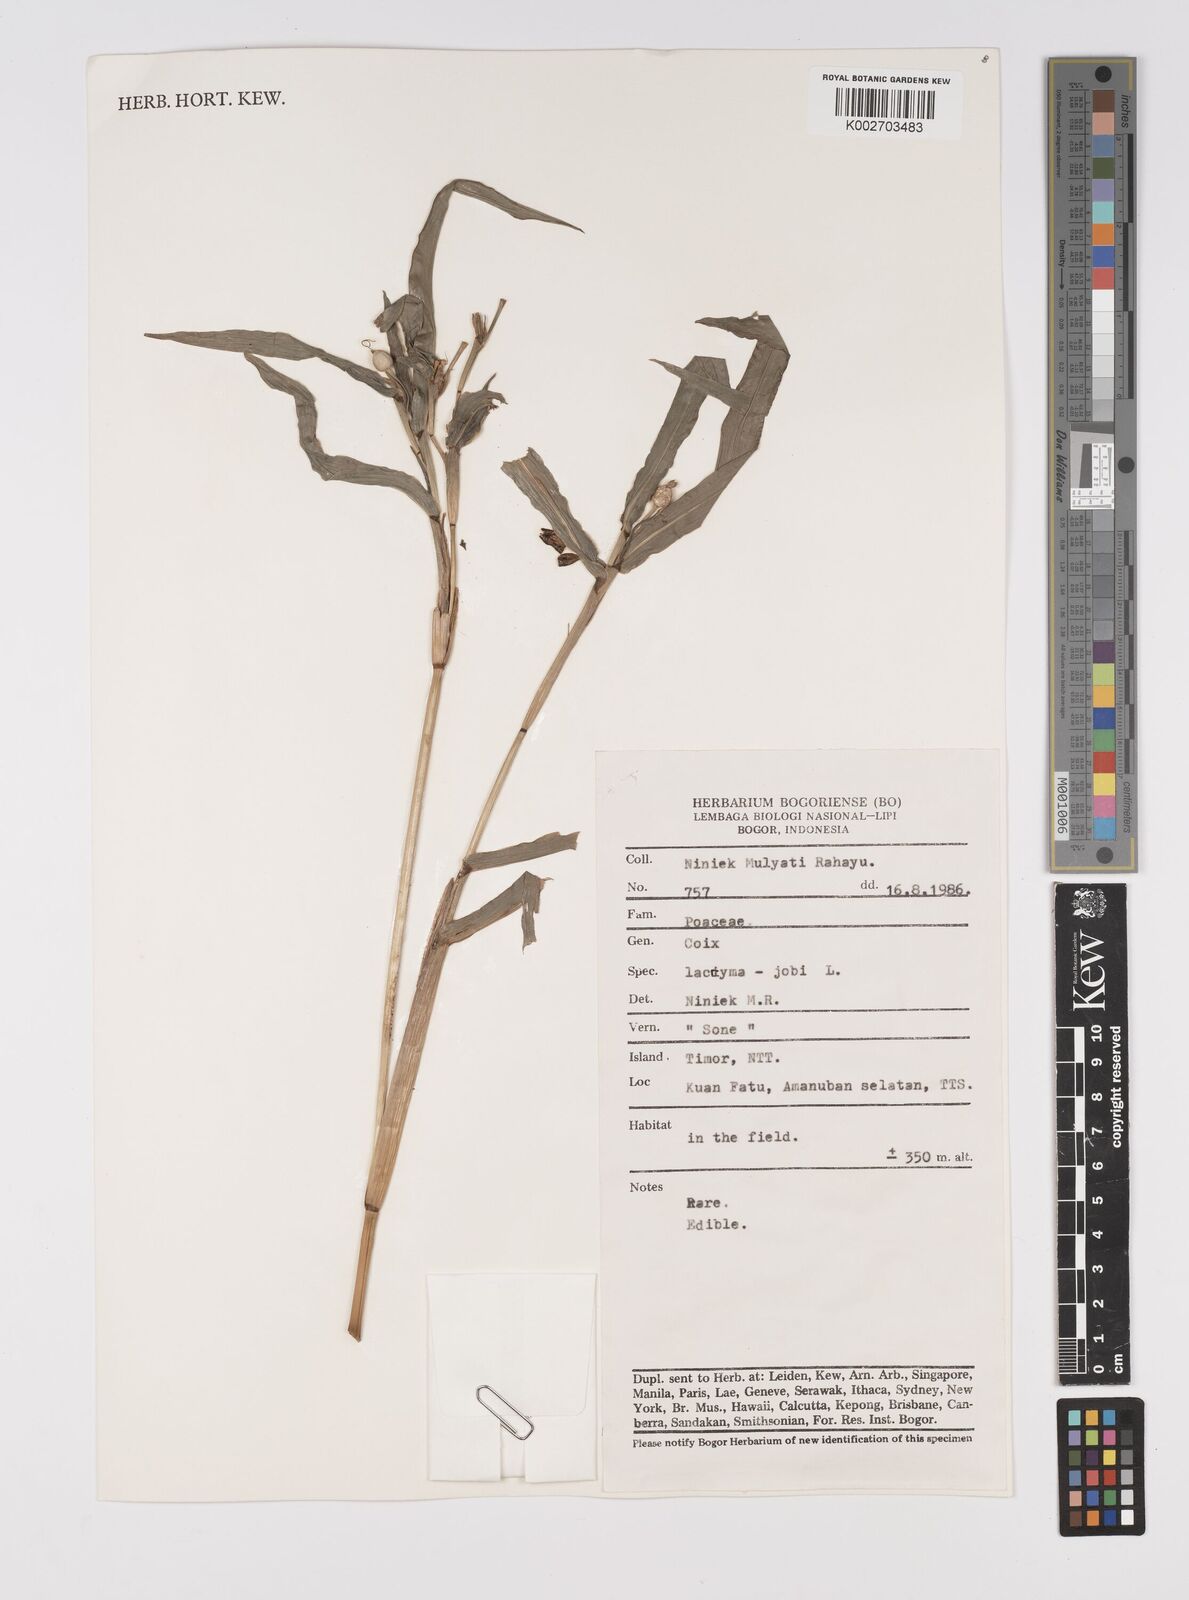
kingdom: Plantae
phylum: Tracheophyta
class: Liliopsida
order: Poales
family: Poaceae
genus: Coix
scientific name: Coix lacryma-jobi
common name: Job's tears
